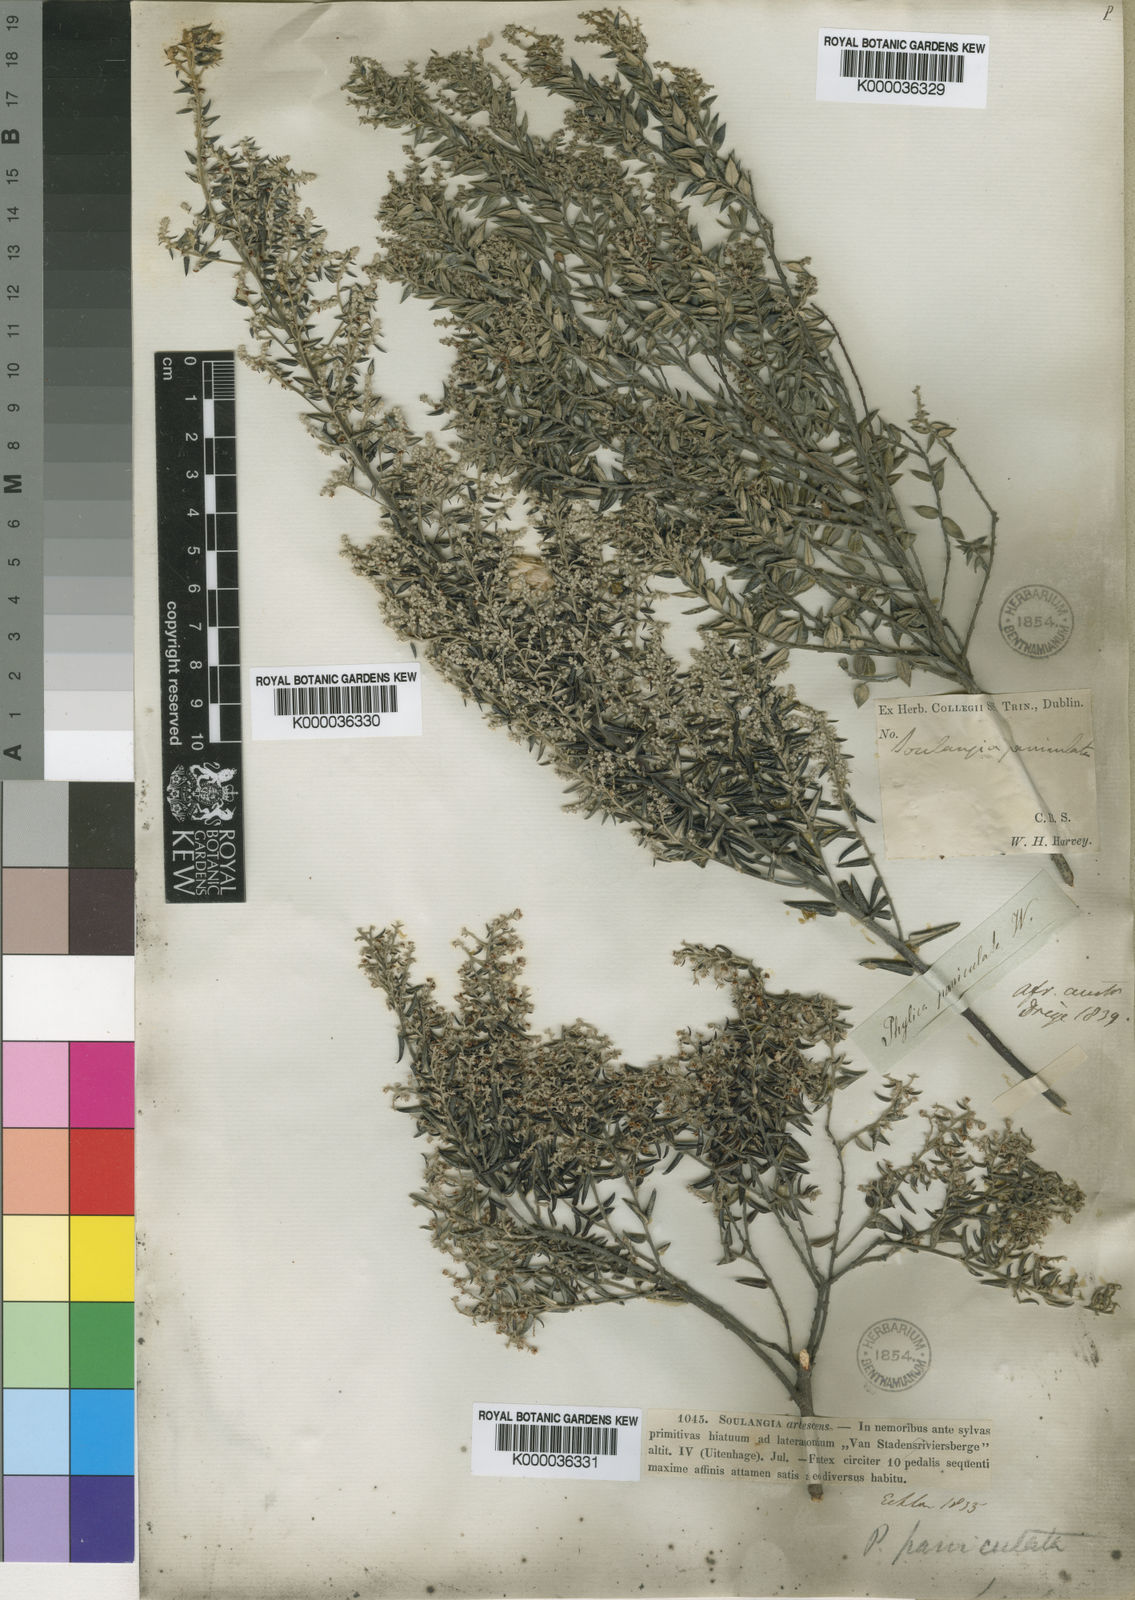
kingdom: Plantae
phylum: Tracheophyta
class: Magnoliopsida
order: Rosales
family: Rhamnaceae
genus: Phylica
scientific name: Phylica paniculata
